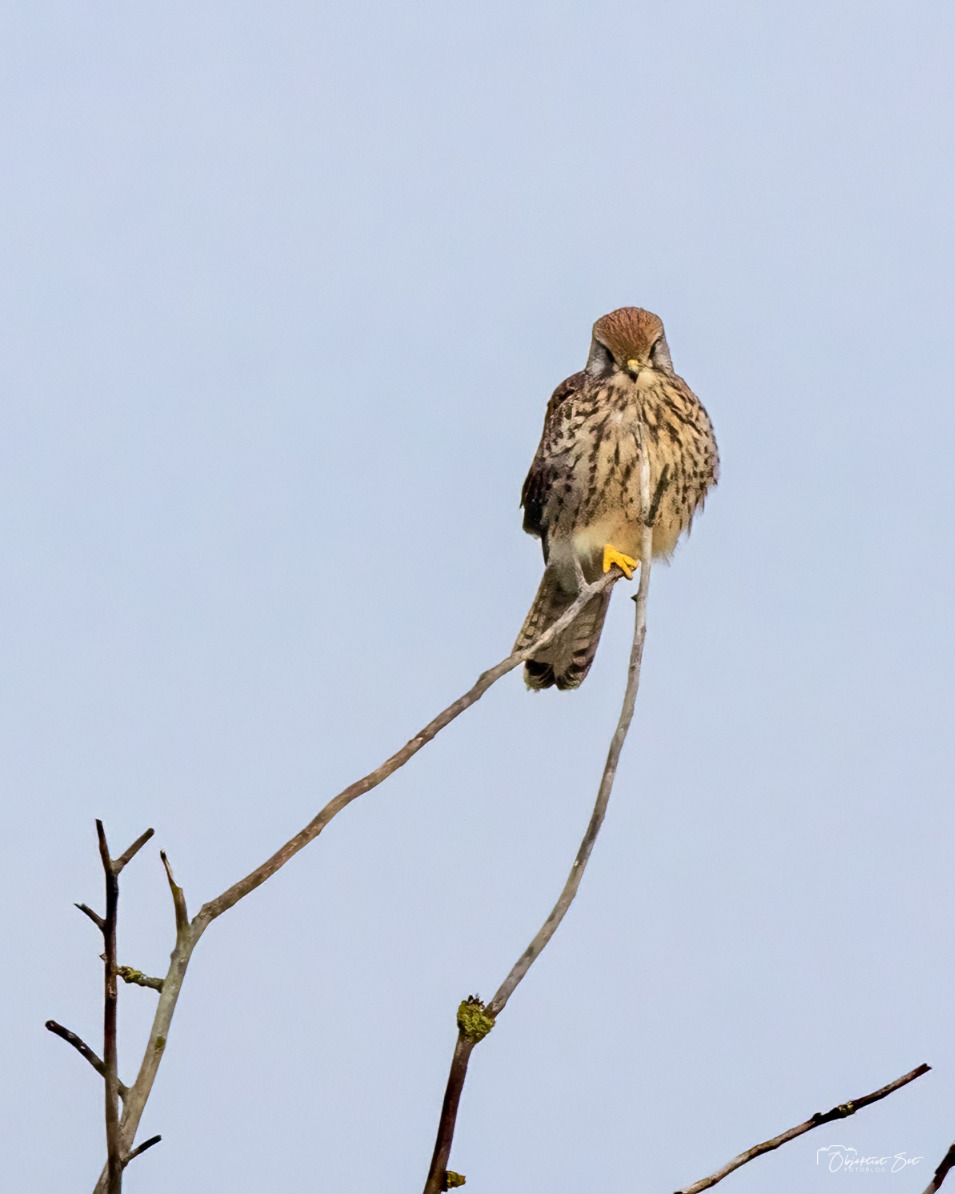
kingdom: Animalia
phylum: Chordata
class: Aves
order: Falconiformes
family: Falconidae
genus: Falco
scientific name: Falco tinnunculus
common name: Tårnfalk
